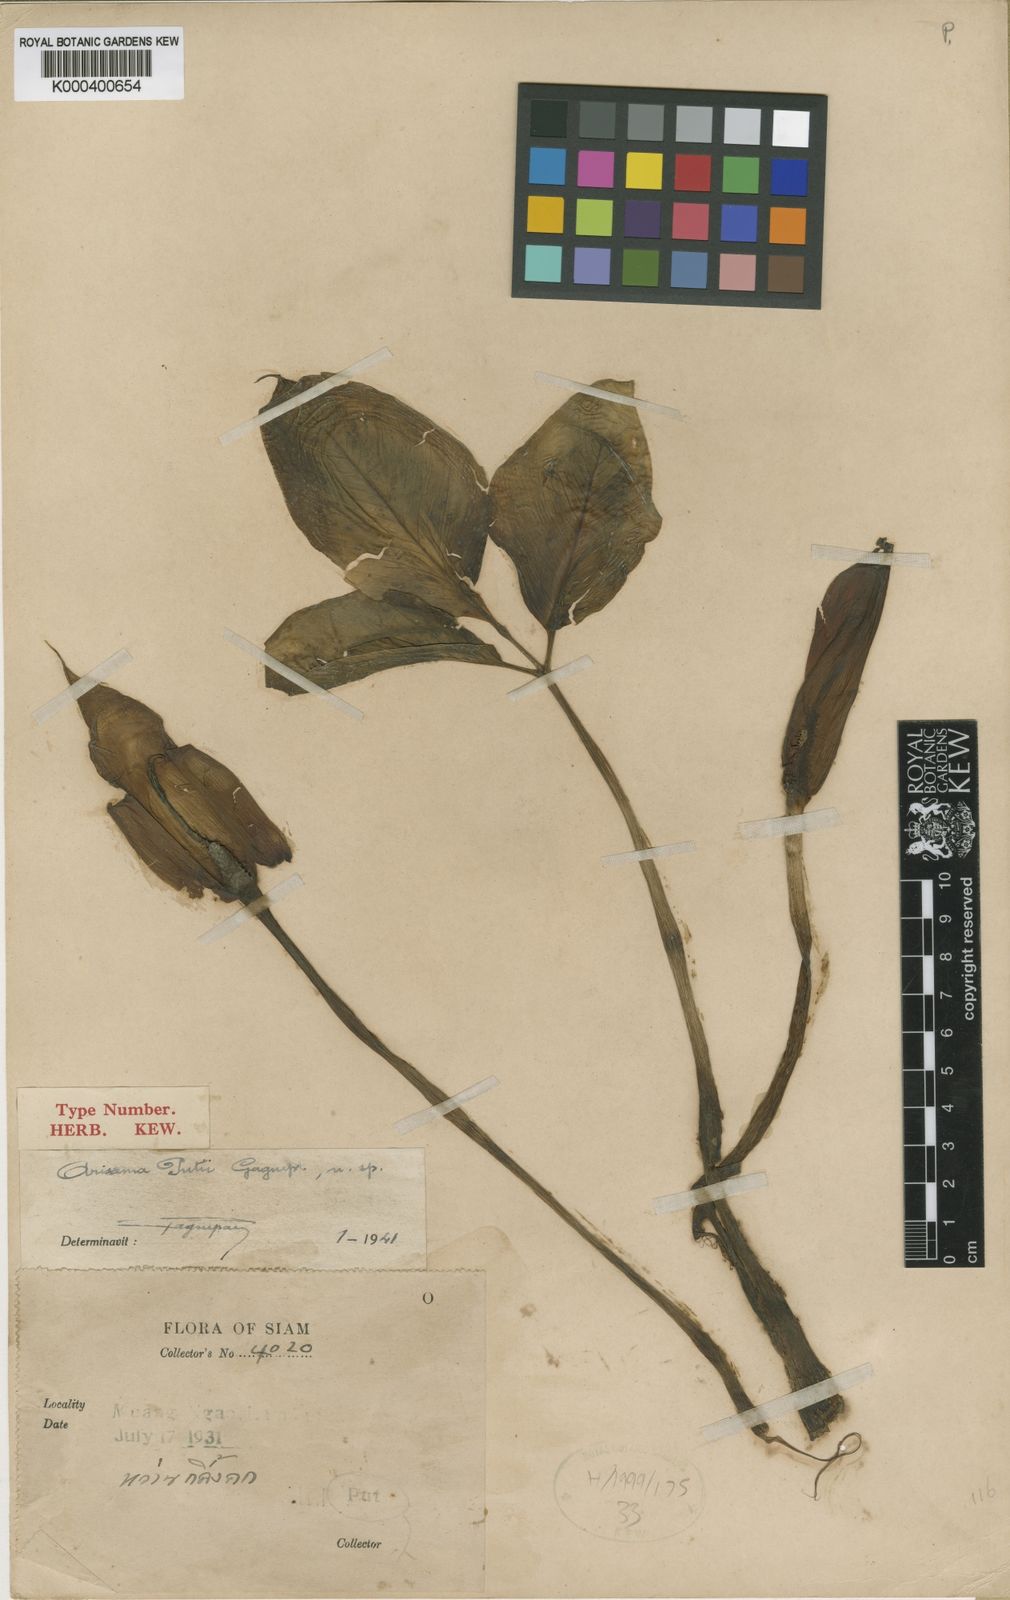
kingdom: Plantae
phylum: Tracheophyta
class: Liliopsida
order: Alismatales
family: Araceae
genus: Arisaema
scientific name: Arisaema fimbriatum
